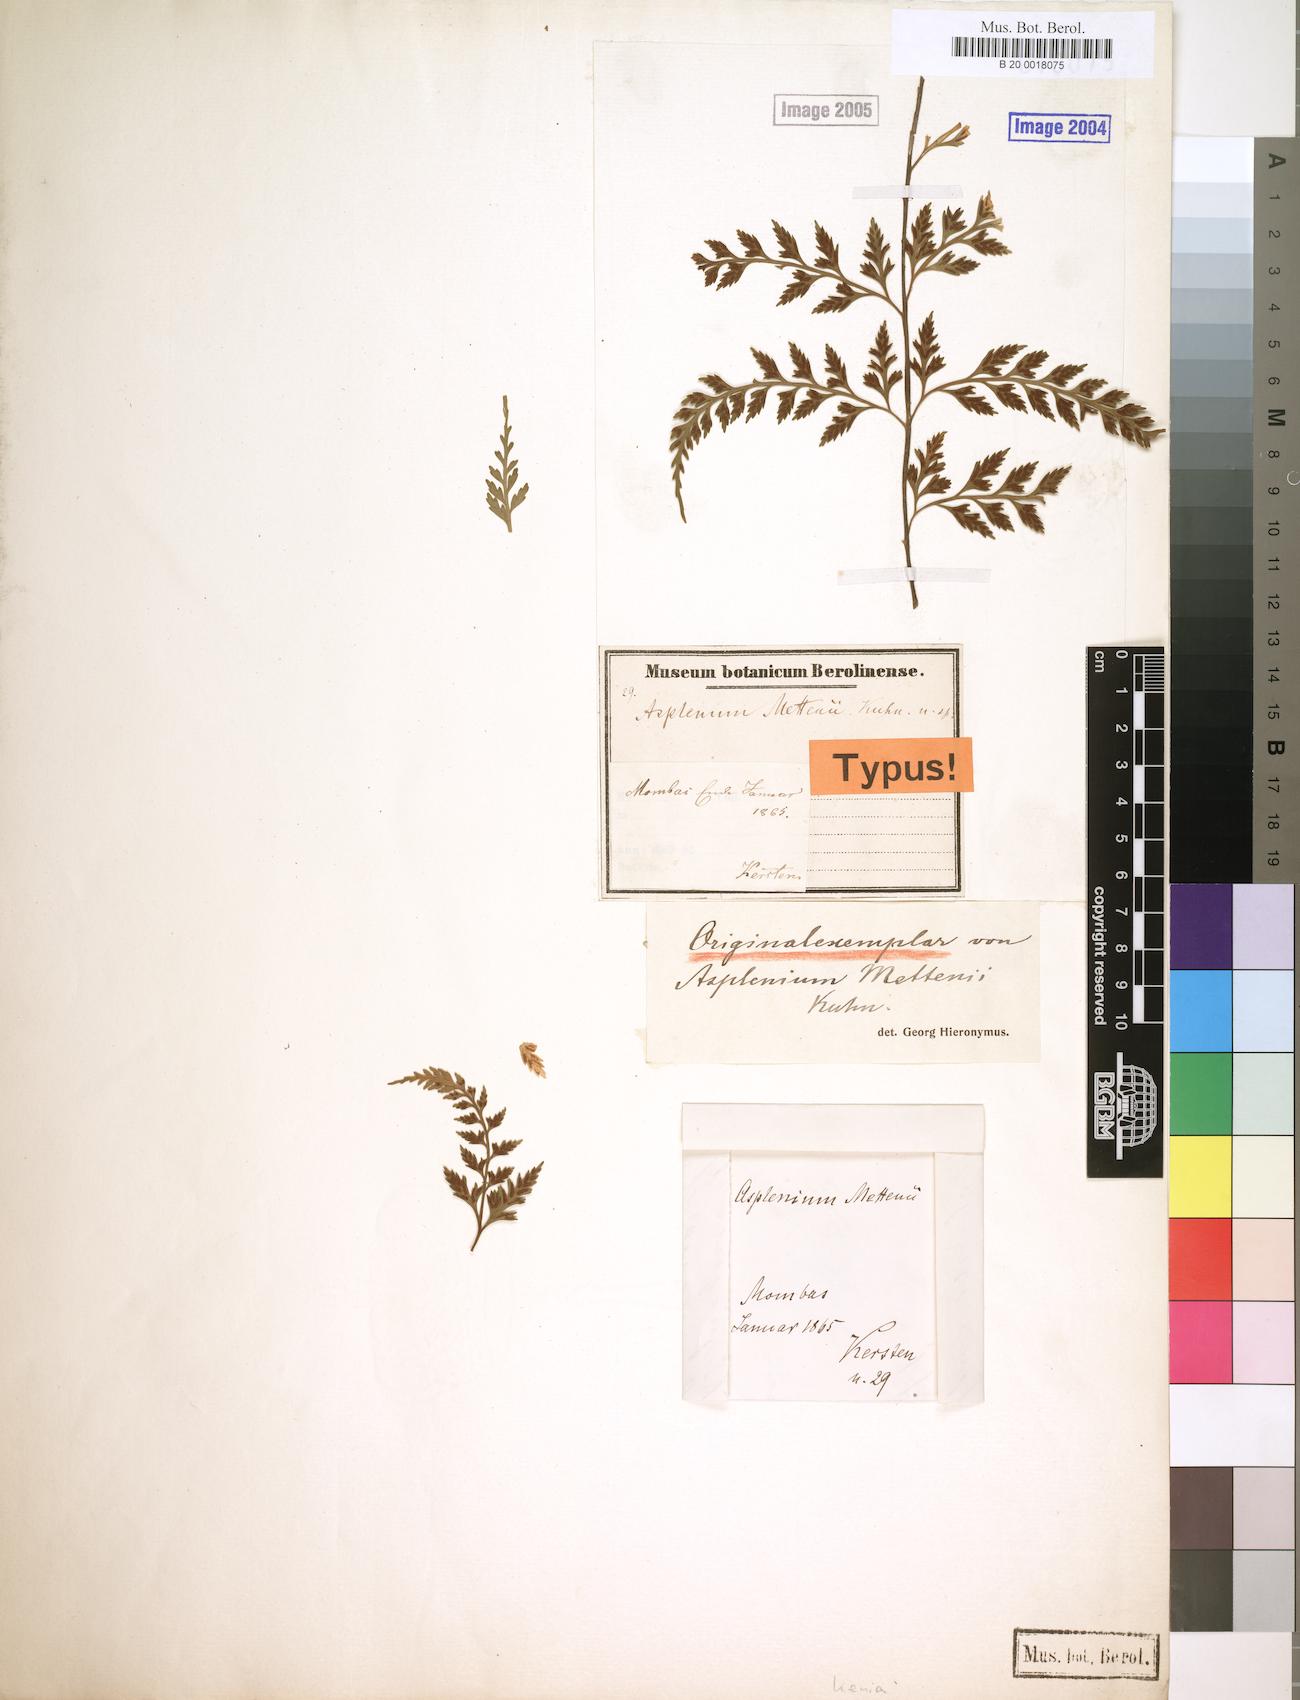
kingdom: Plantae
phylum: Tracheophyta
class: Polypodiopsida
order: Polypodiales
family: Aspleniaceae
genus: Asplenium
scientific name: Asplenium affine
